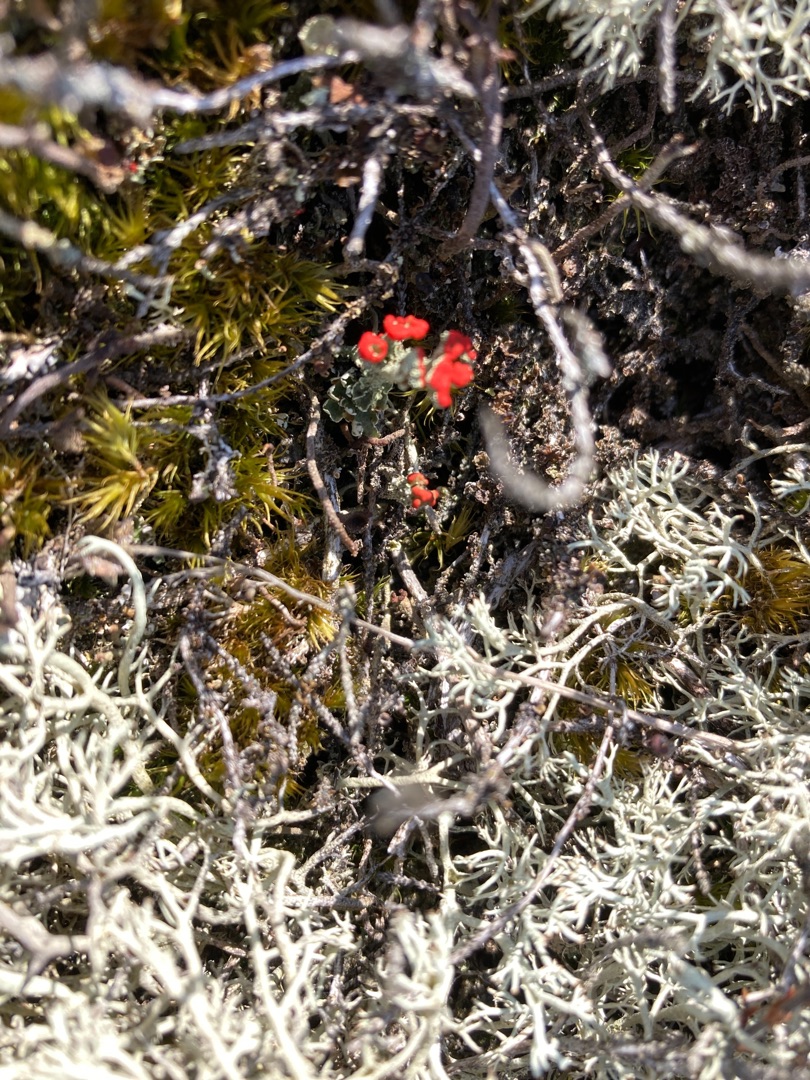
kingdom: Fungi
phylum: Ascomycota
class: Lecanoromycetes
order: Lecanorales
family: Cladoniaceae
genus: Cladonia
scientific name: Cladonia
